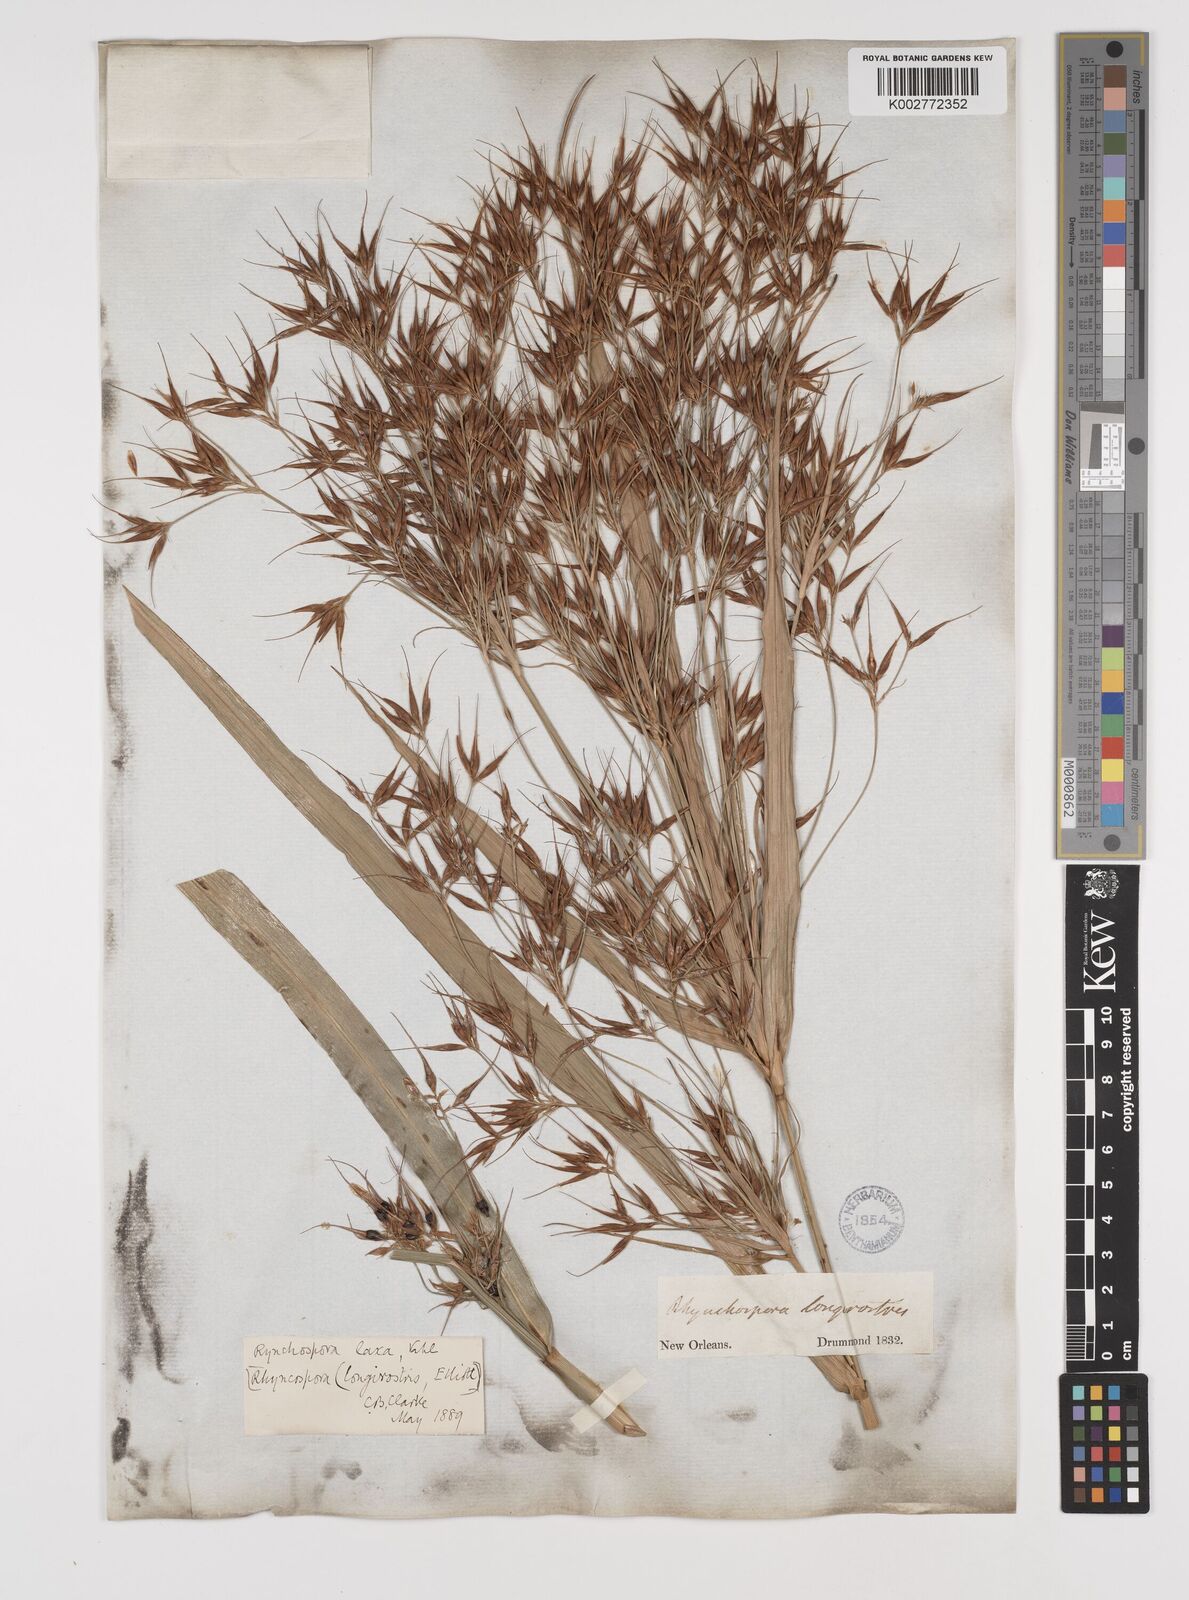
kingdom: Plantae
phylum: Tracheophyta
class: Liliopsida
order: Poales
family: Cyperaceae
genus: Rhynchospora
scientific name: Rhynchospora corniculata
